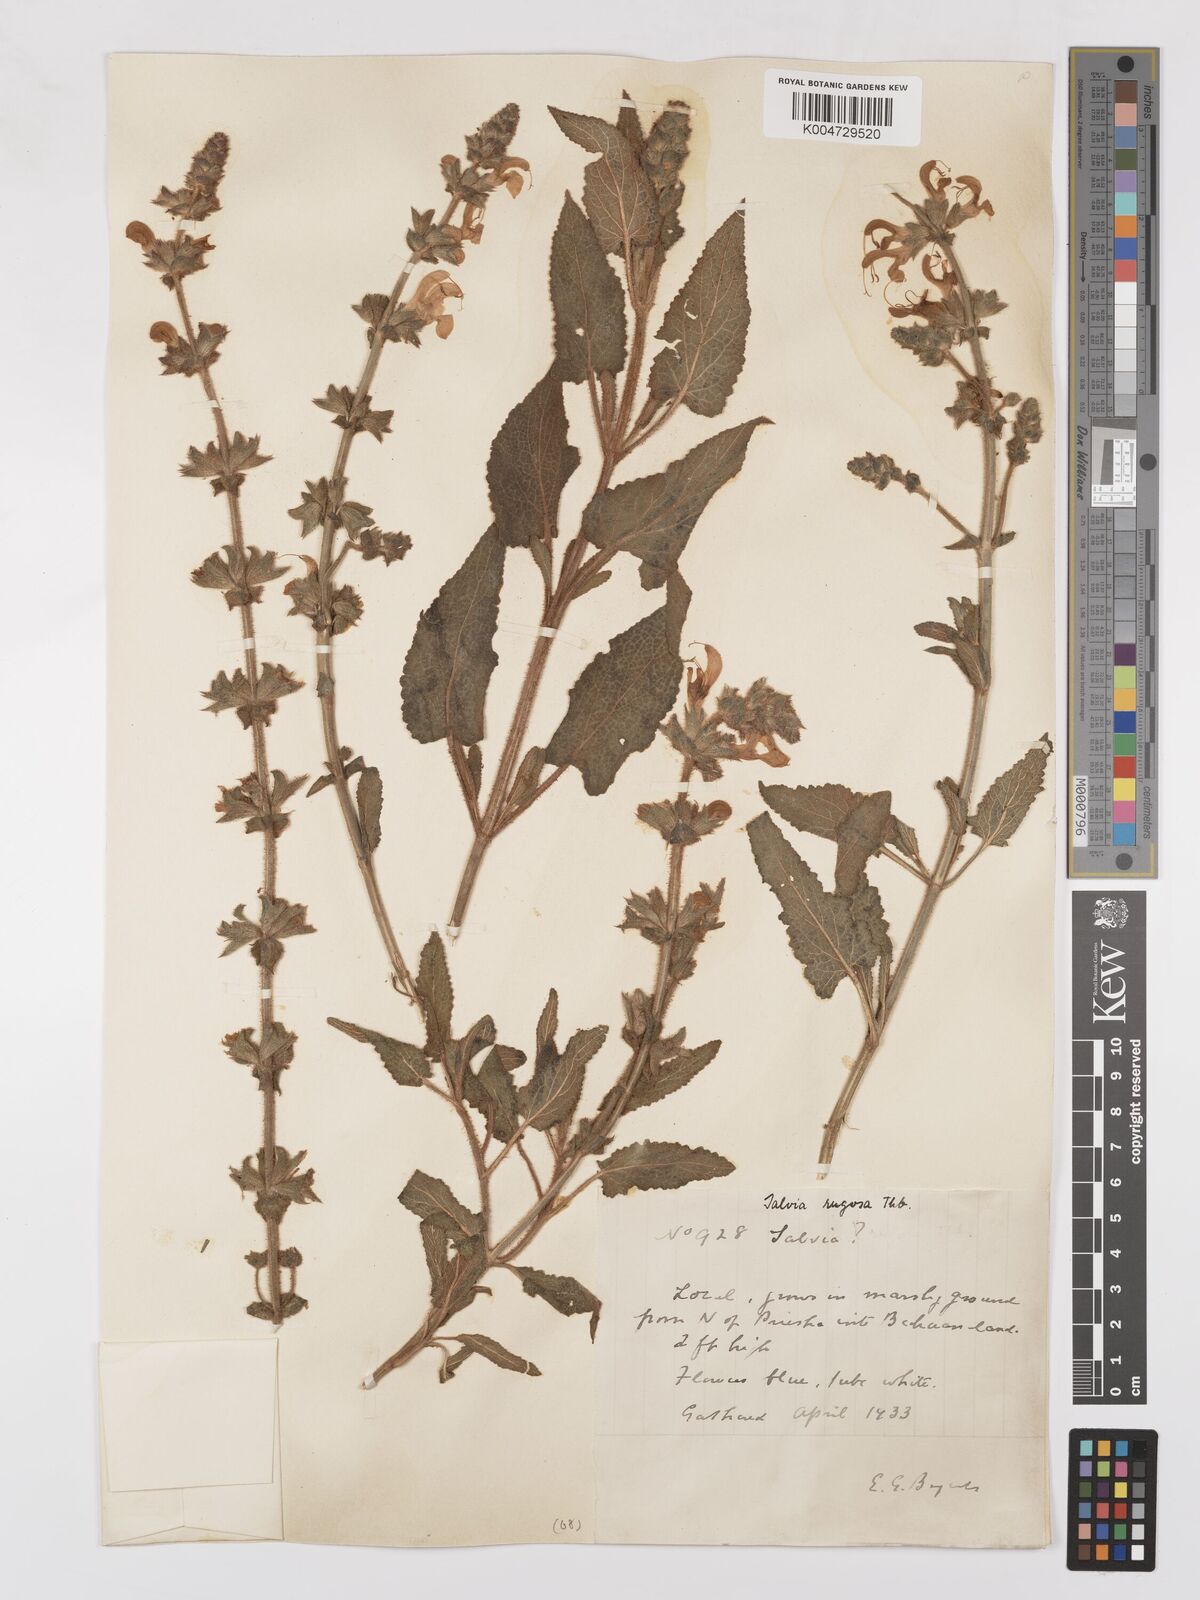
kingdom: Plantae
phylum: Tracheophyta
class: Magnoliopsida
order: Lamiales
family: Lamiaceae
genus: Salvia
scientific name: Salvia
